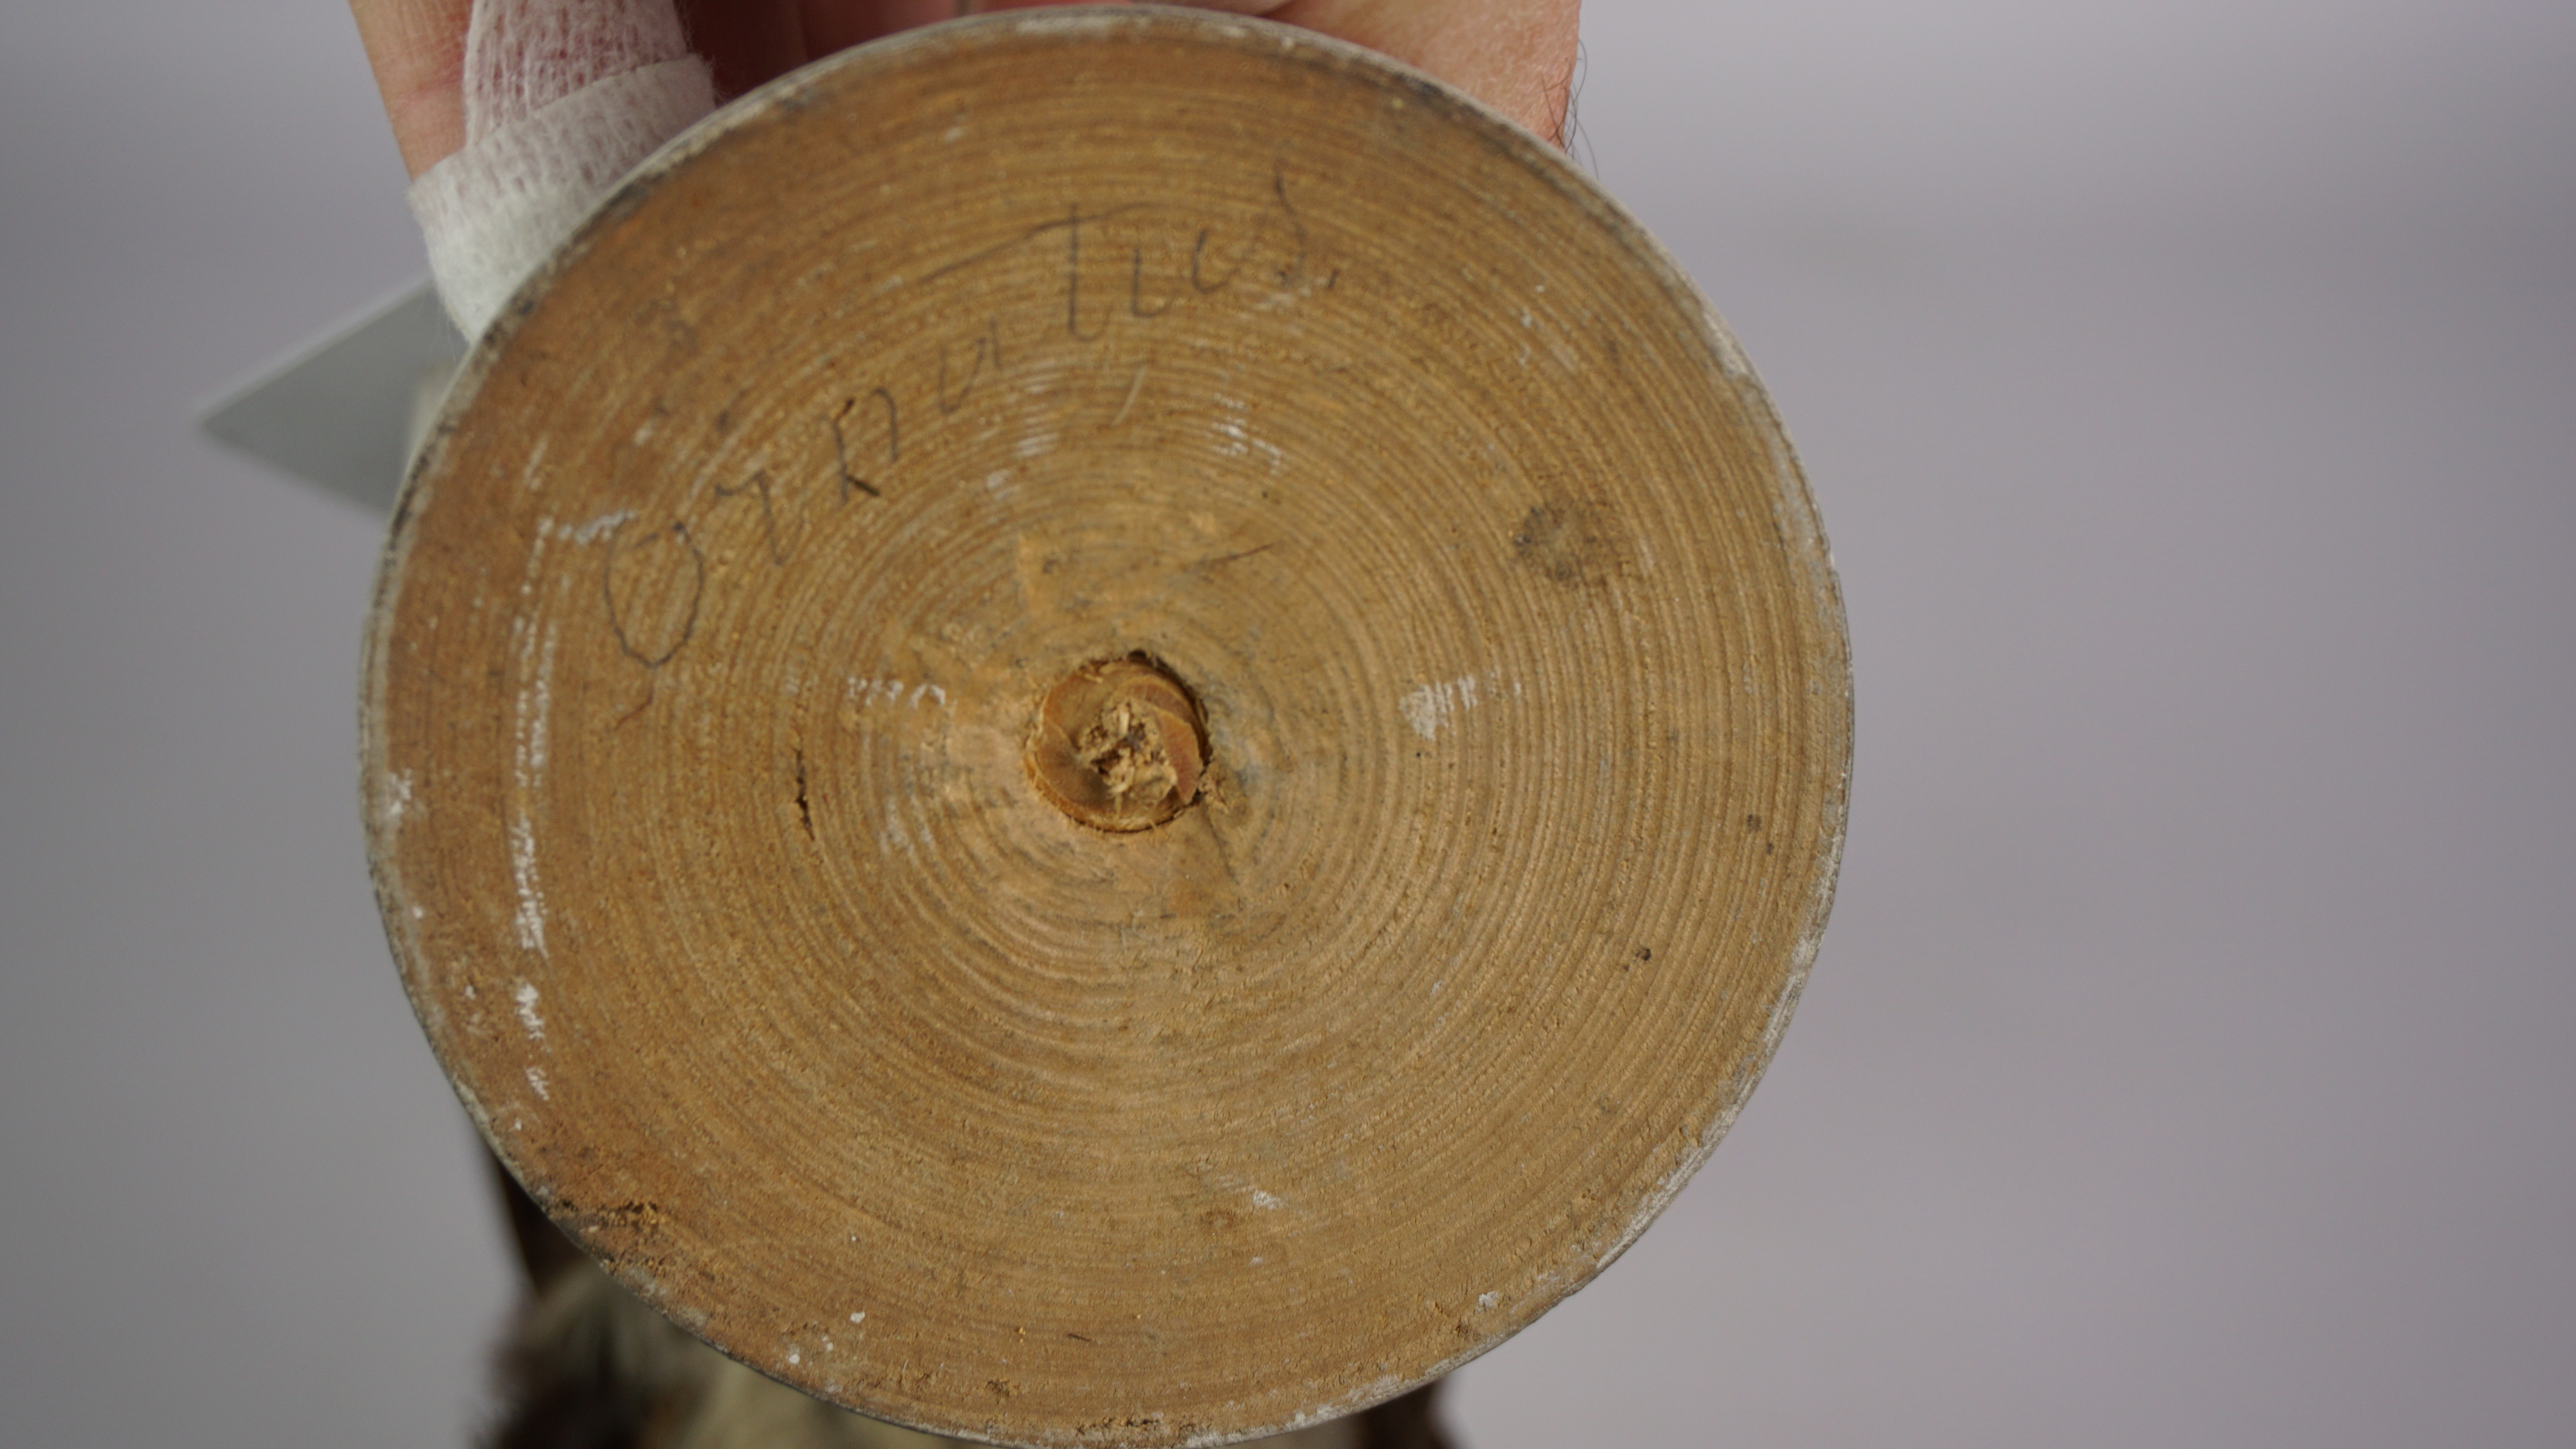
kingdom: Animalia
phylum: Chordata
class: Aves
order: Trogoniformes
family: Trogonidae
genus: Pharomachrus
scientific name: Pharomachrus mocinno
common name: Resplendent quetzal
